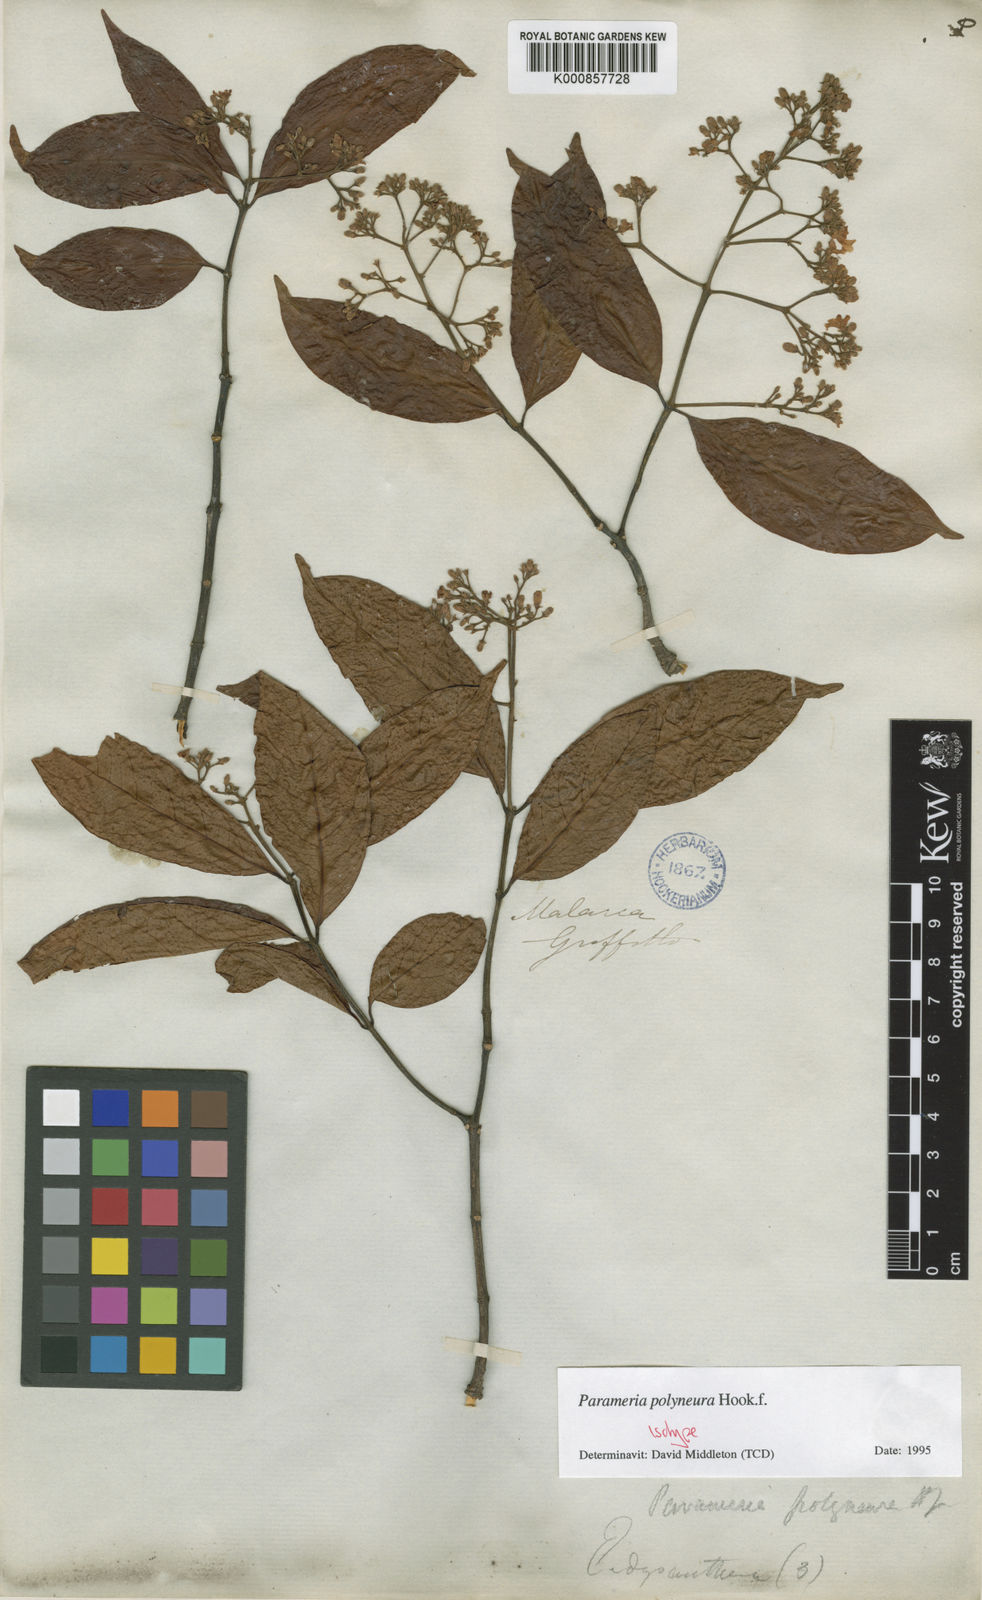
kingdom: Plantae
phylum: Tracheophyta
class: Magnoliopsida
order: Gentianales
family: Apocynaceae
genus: Urceola
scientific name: Urceola polyneura
